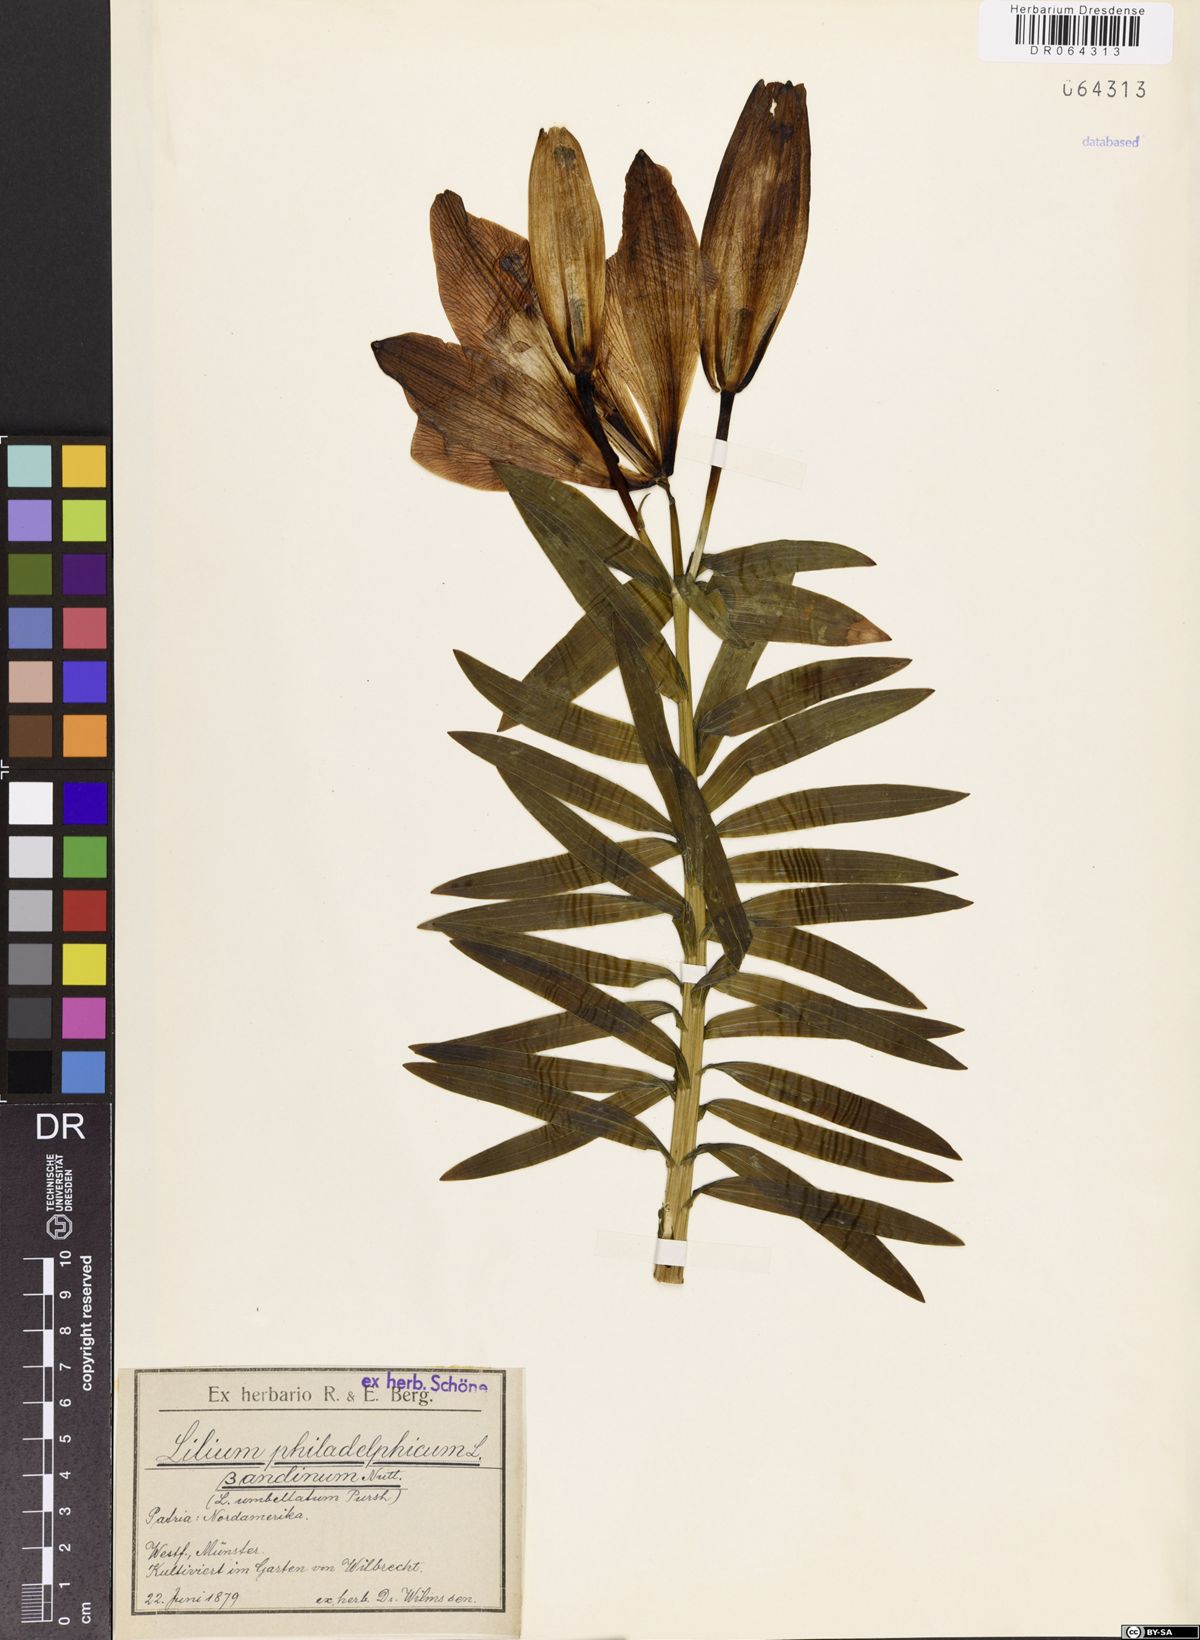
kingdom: Plantae
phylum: Tracheophyta
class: Liliopsida
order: Liliales
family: Liliaceae
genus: Lilium
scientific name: Lilium philadelphicum
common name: Red lily
